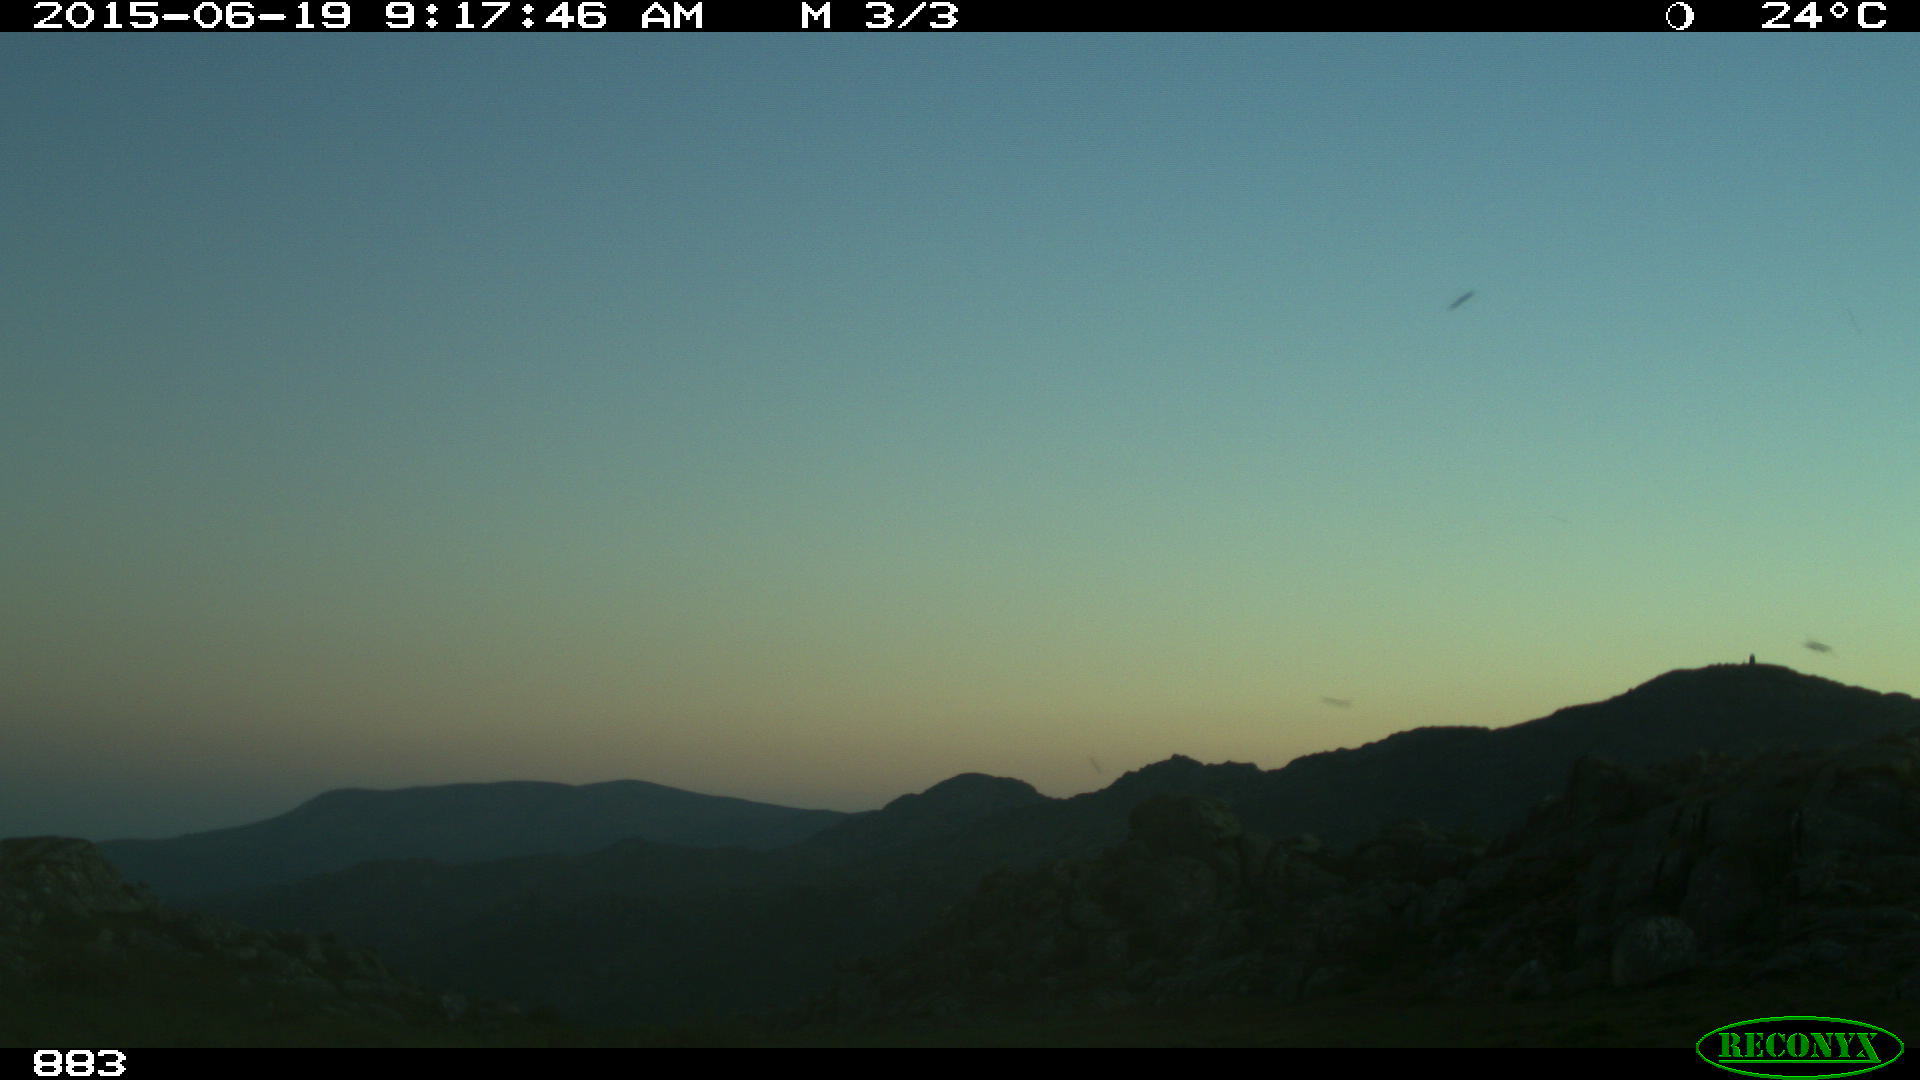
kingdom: Animalia
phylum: Chordata
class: Mammalia
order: Artiodactyla
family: Bovidae
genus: Bos
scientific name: Bos taurus
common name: Domesticated cattle
